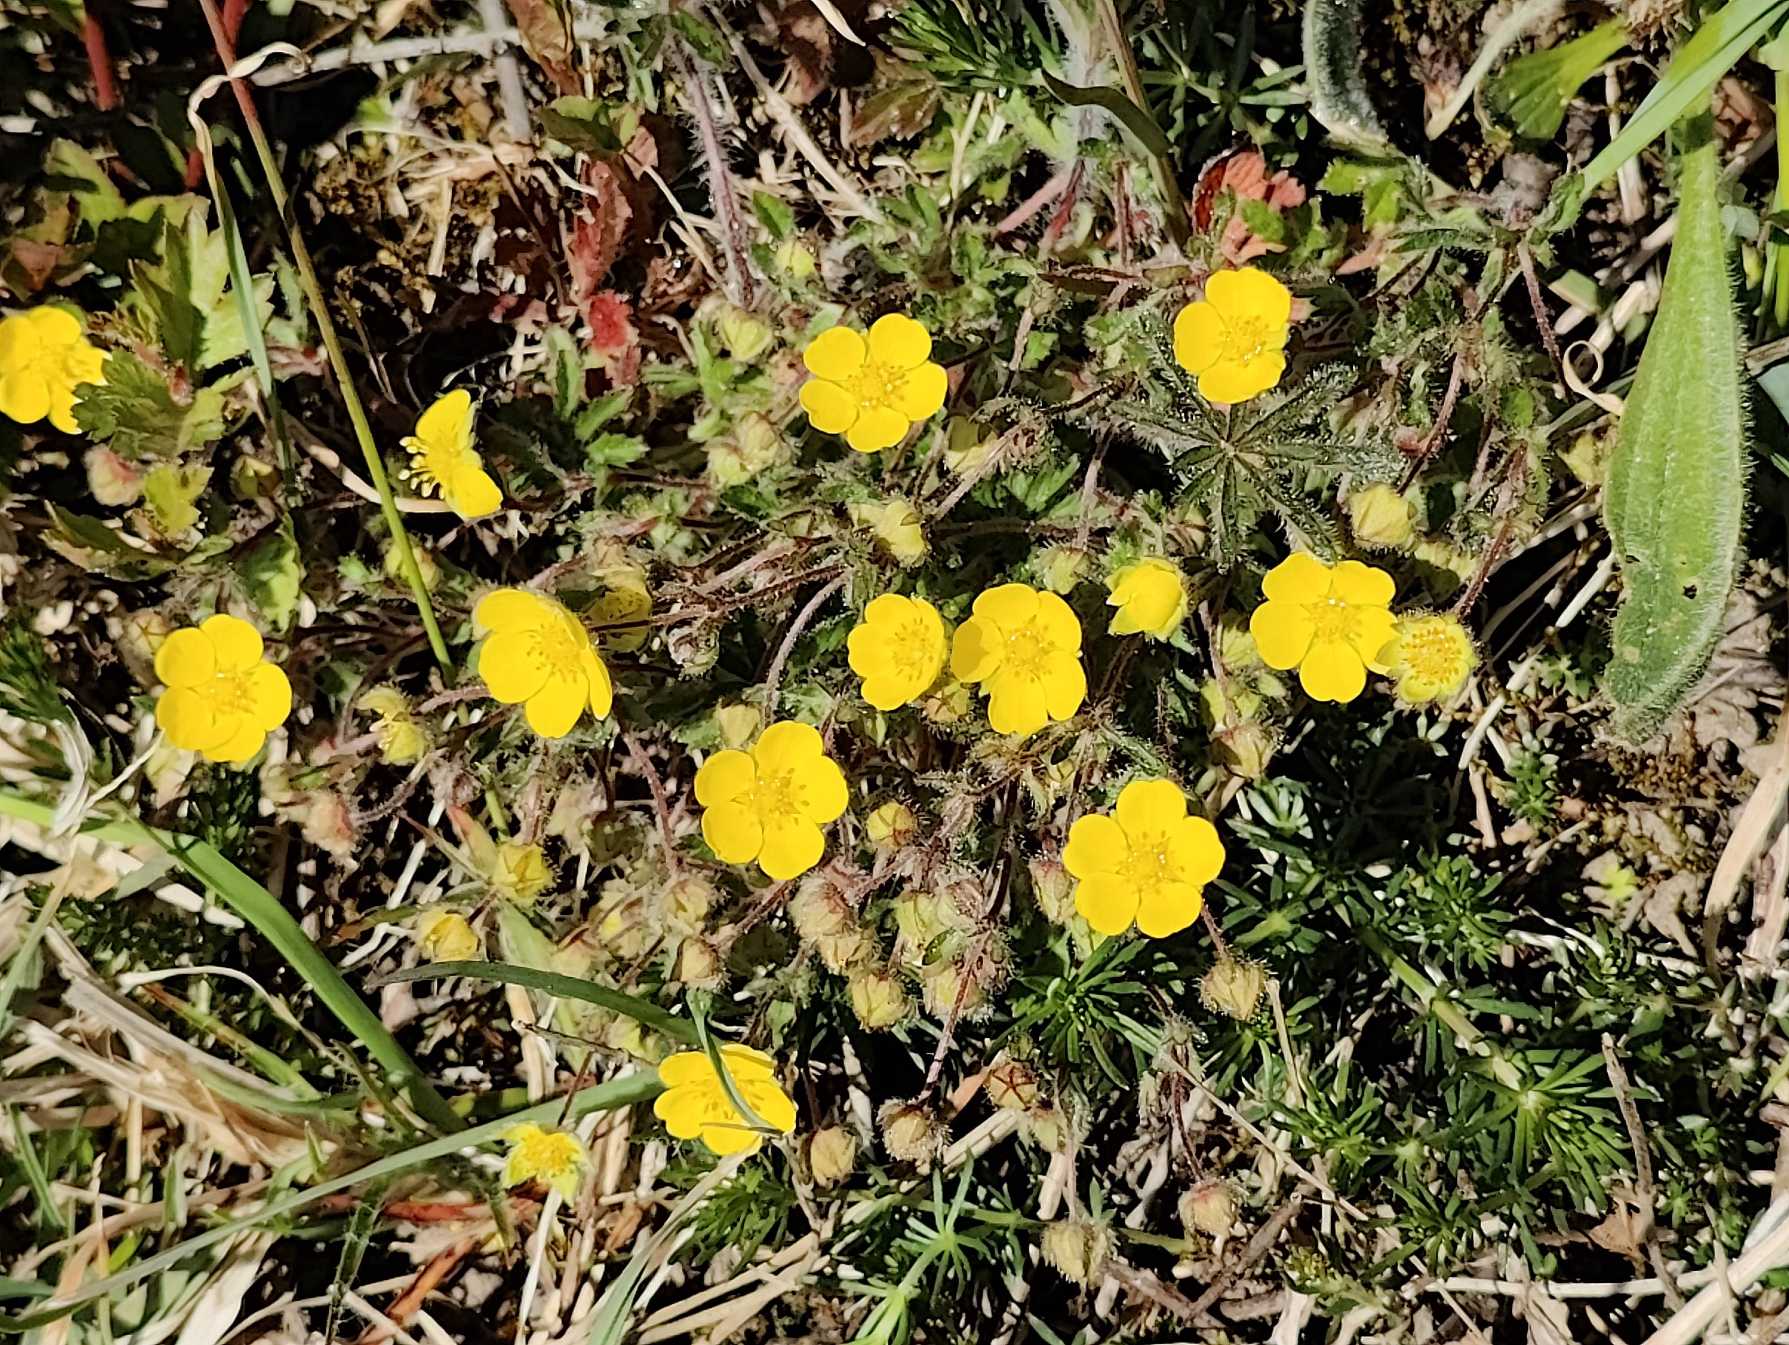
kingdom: Plantae
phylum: Tracheophyta
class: Magnoliopsida
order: Rosales
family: Rosaceae
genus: Potentilla
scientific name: Potentilla heptaphylla
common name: Mat potentil
